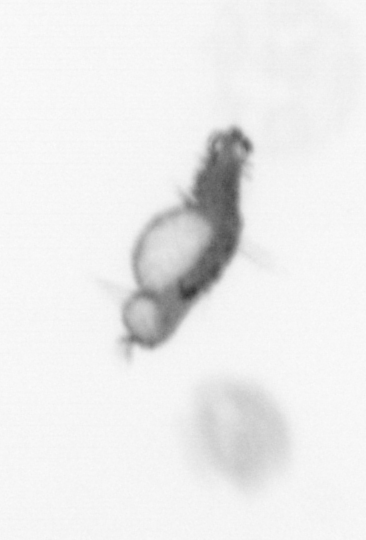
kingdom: Animalia
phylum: Annelida
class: Polychaeta
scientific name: Polychaeta
